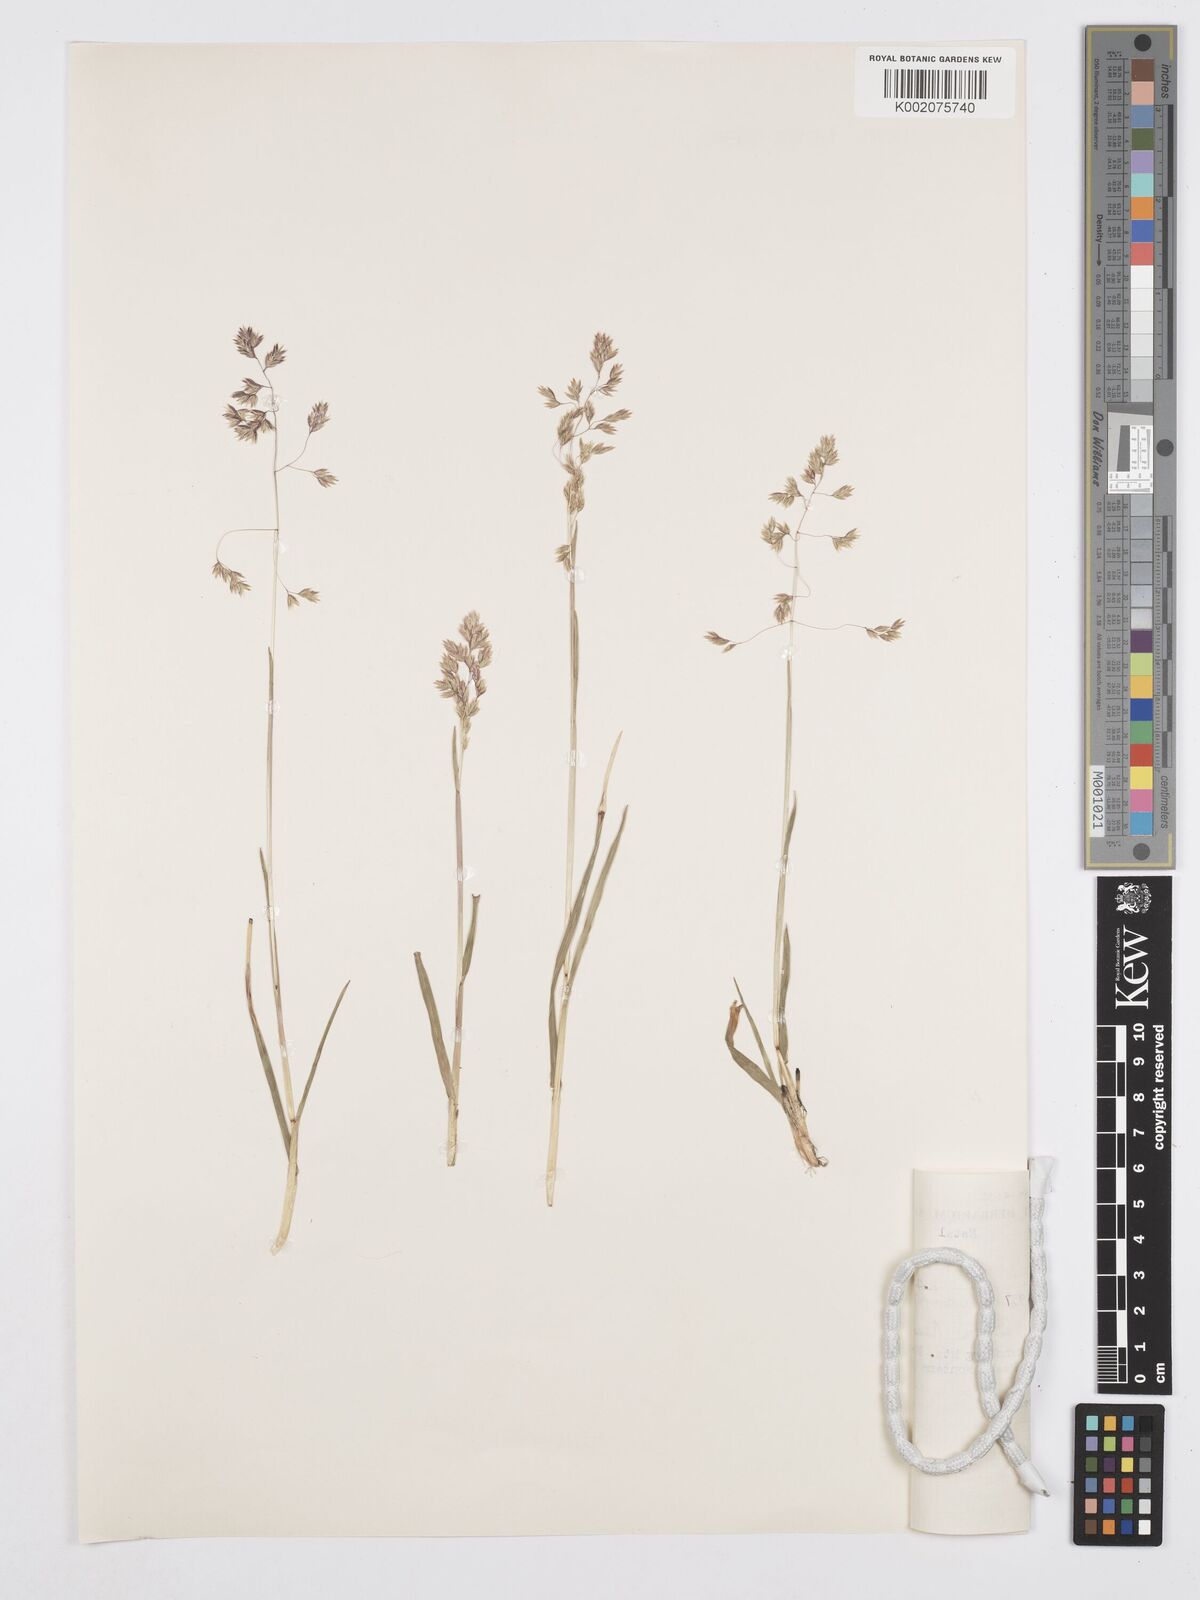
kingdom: Plantae
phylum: Tracheophyta
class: Liliopsida
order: Poales
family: Poaceae
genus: Poa
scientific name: Poa binata
